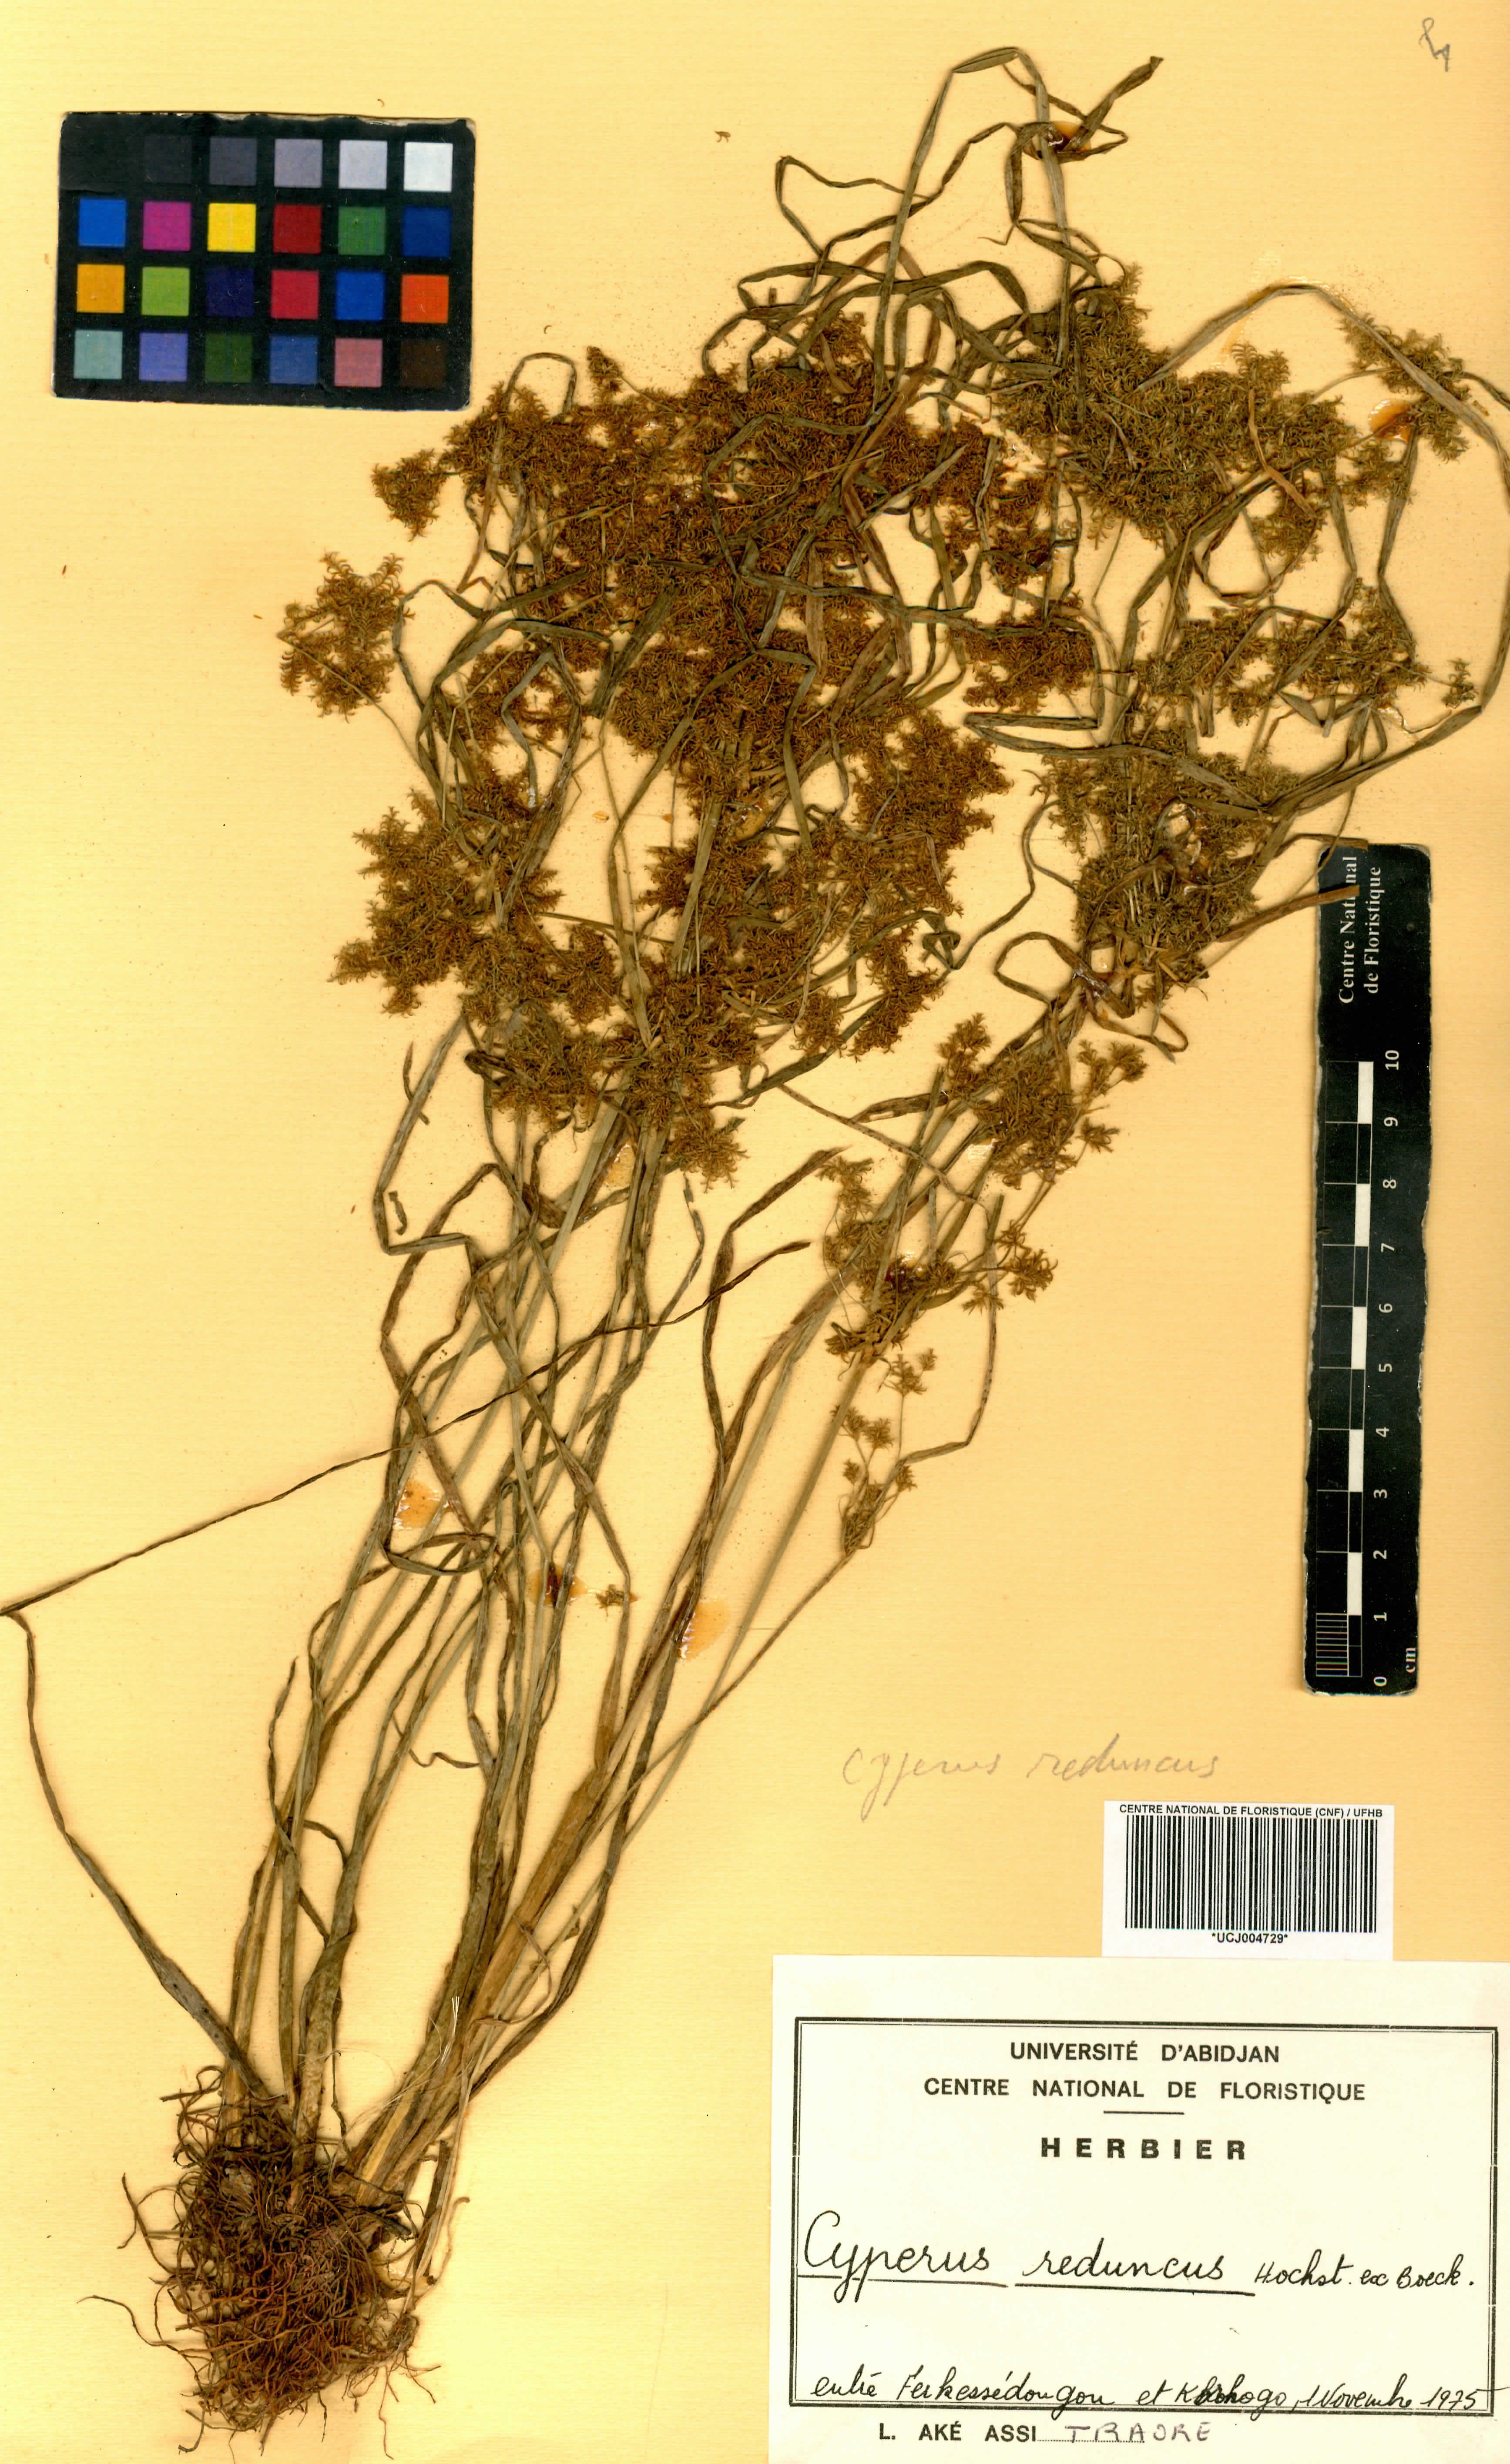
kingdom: Plantae
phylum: Tracheophyta
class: Liliopsida
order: Poales
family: Cyperaceae
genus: Cyperus
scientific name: Cyperus reduncus
